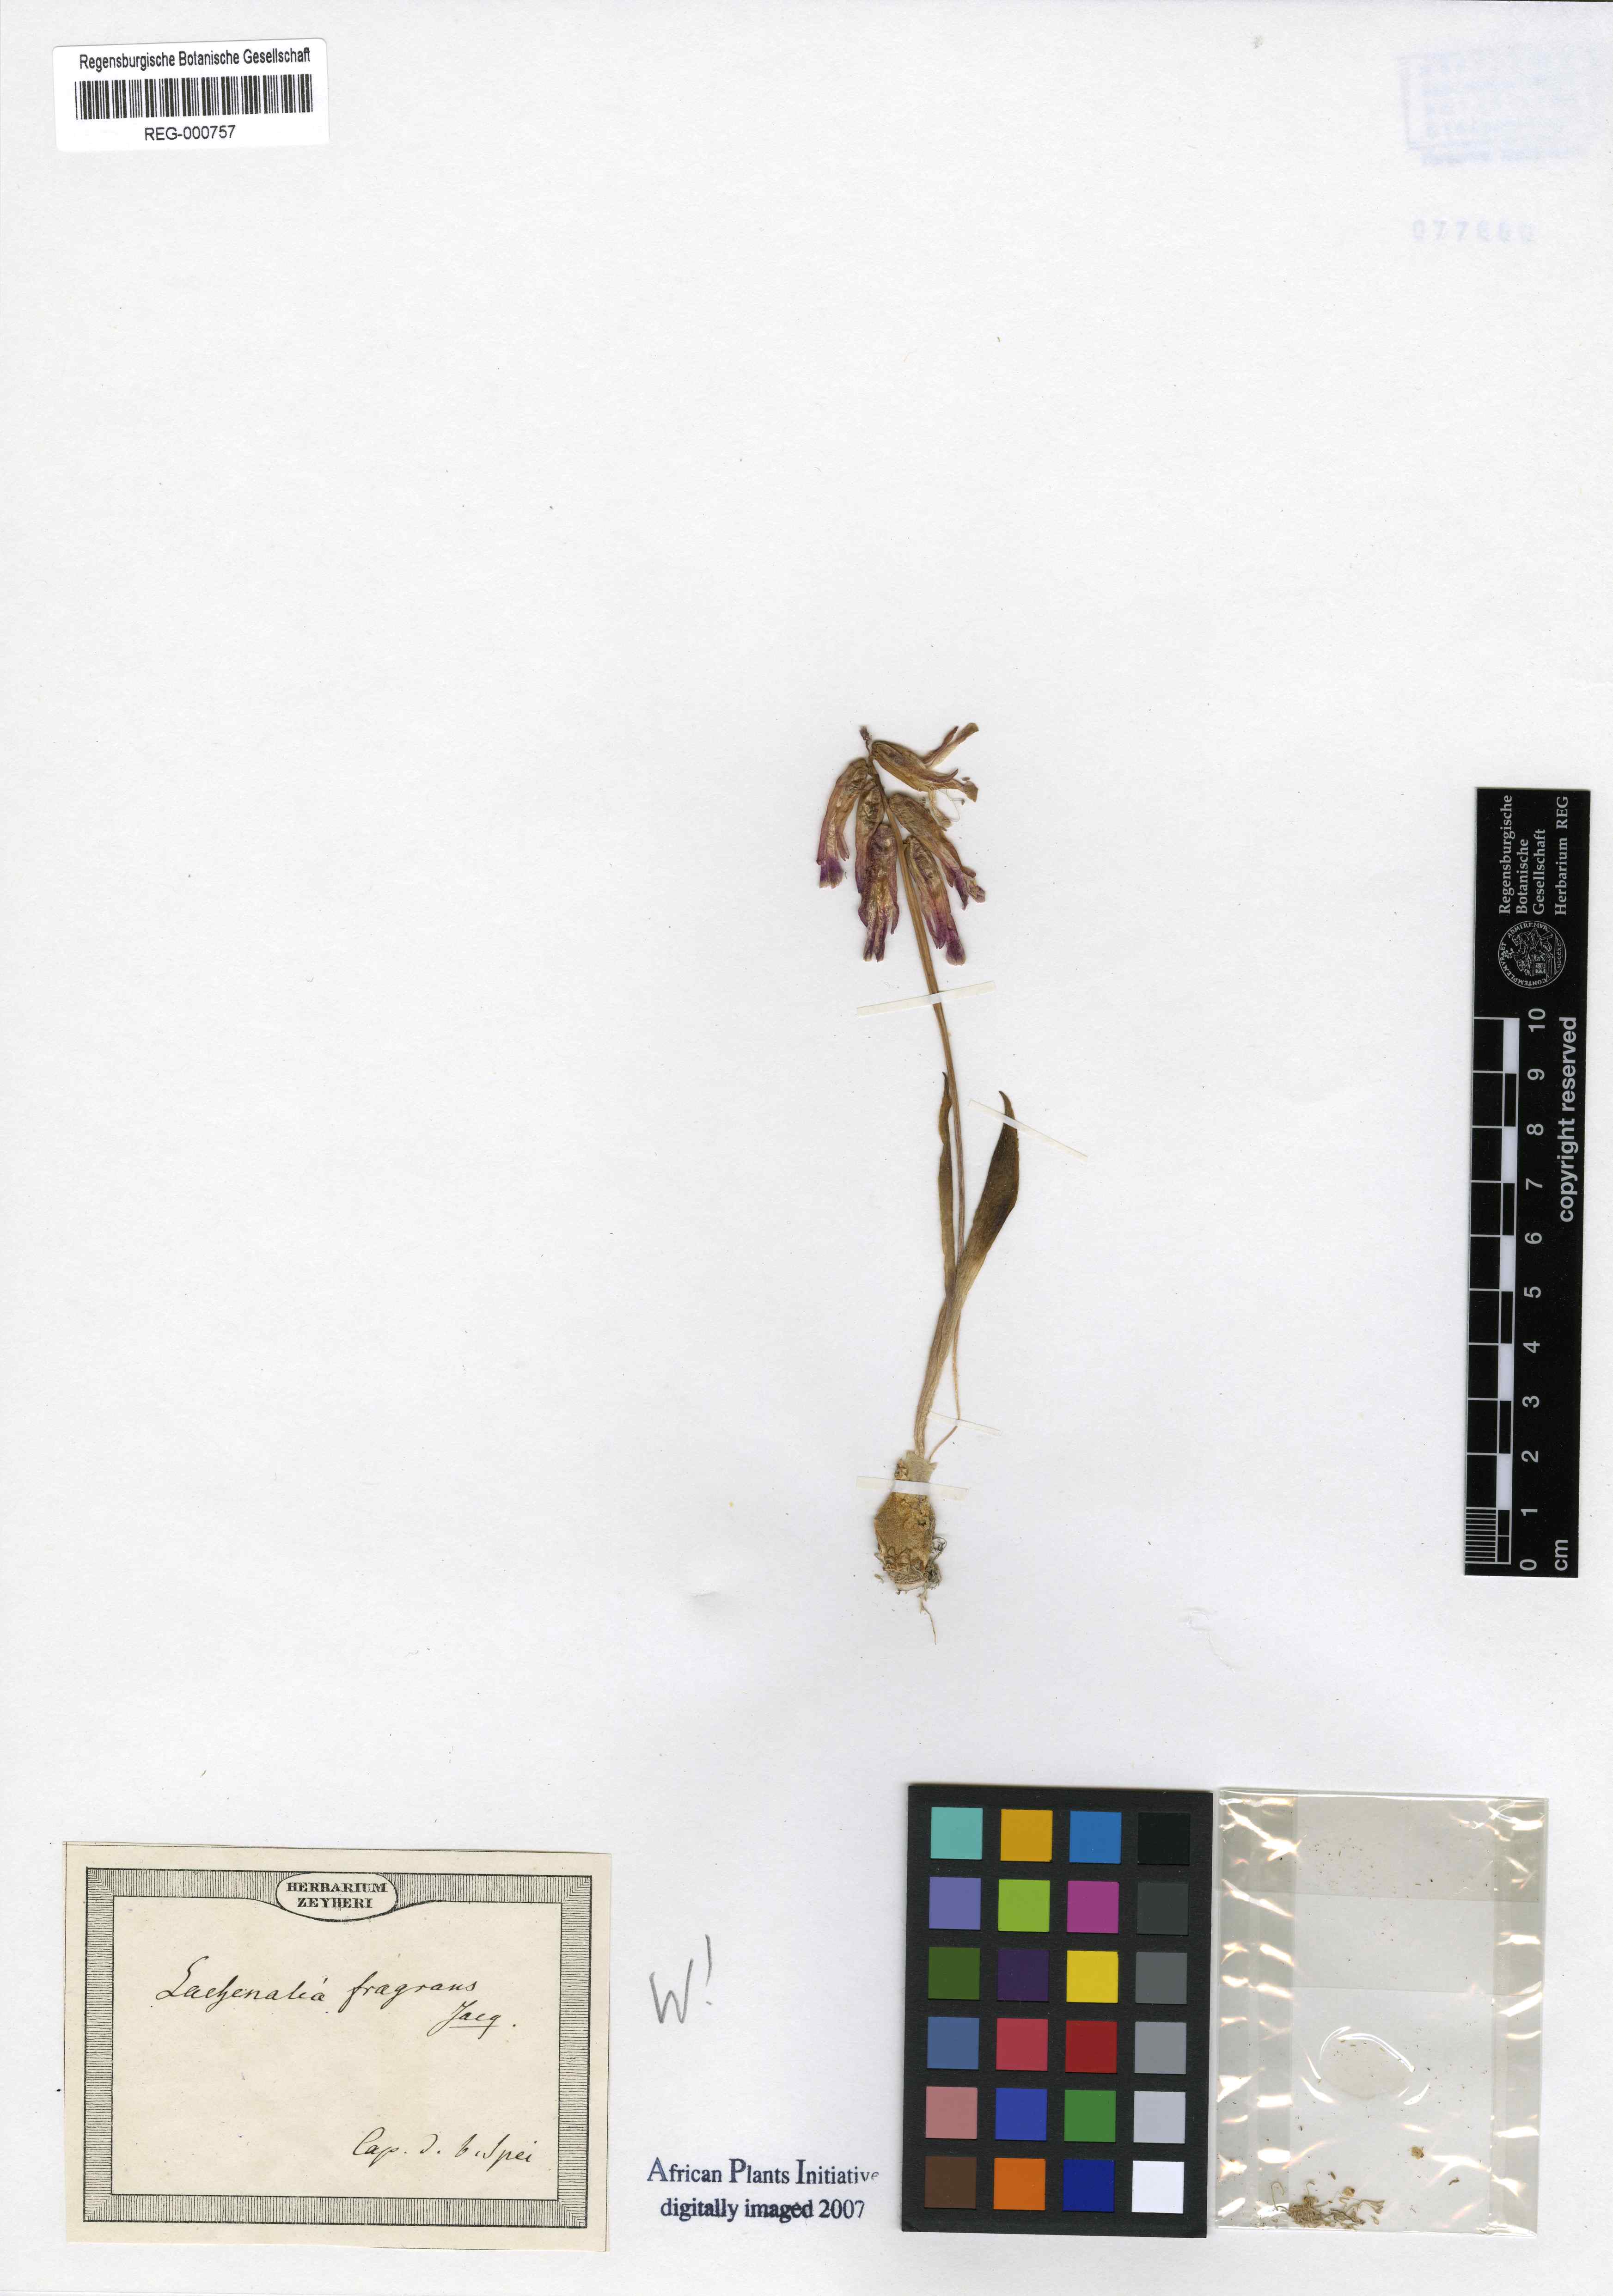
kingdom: Plantae
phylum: Tracheophyta
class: Liliopsida
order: Asparagales
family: Asparagaceae
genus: Lachenalia
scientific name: Lachenalia pallida
